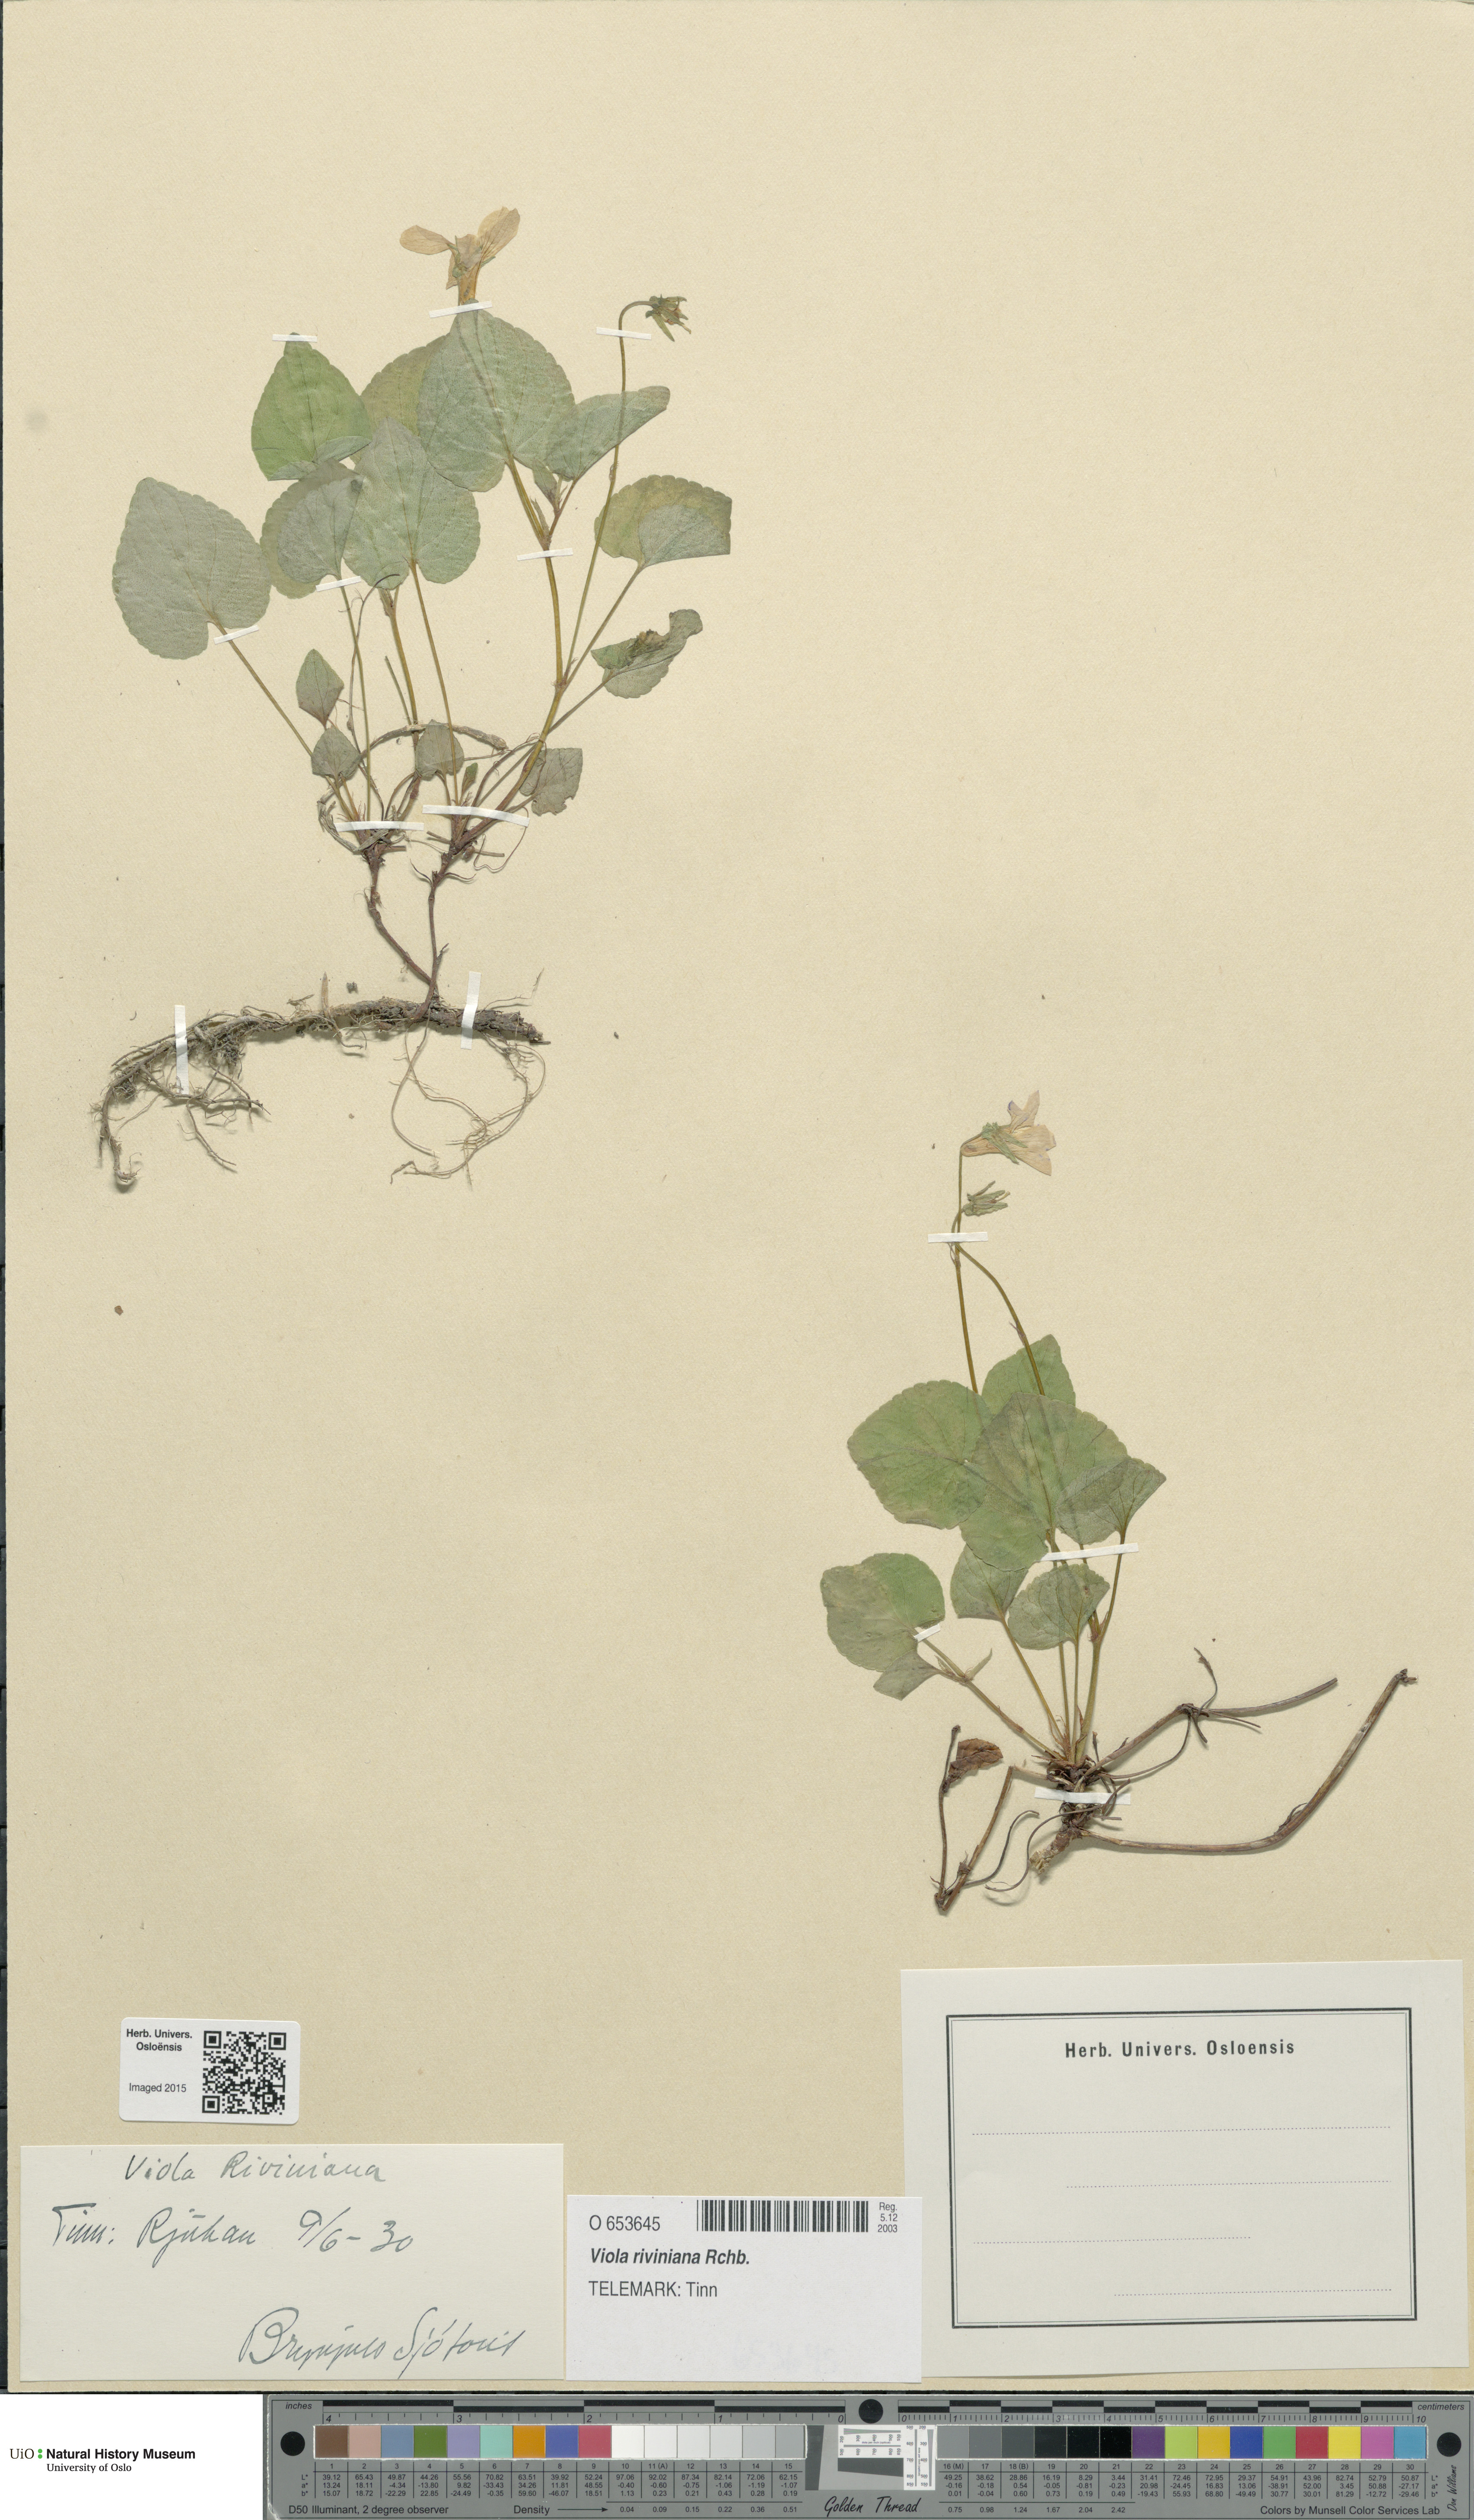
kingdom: Plantae
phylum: Tracheophyta
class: Magnoliopsida
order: Malpighiales
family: Violaceae
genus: Viola
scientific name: Viola riviniana
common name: Common dog-violet
